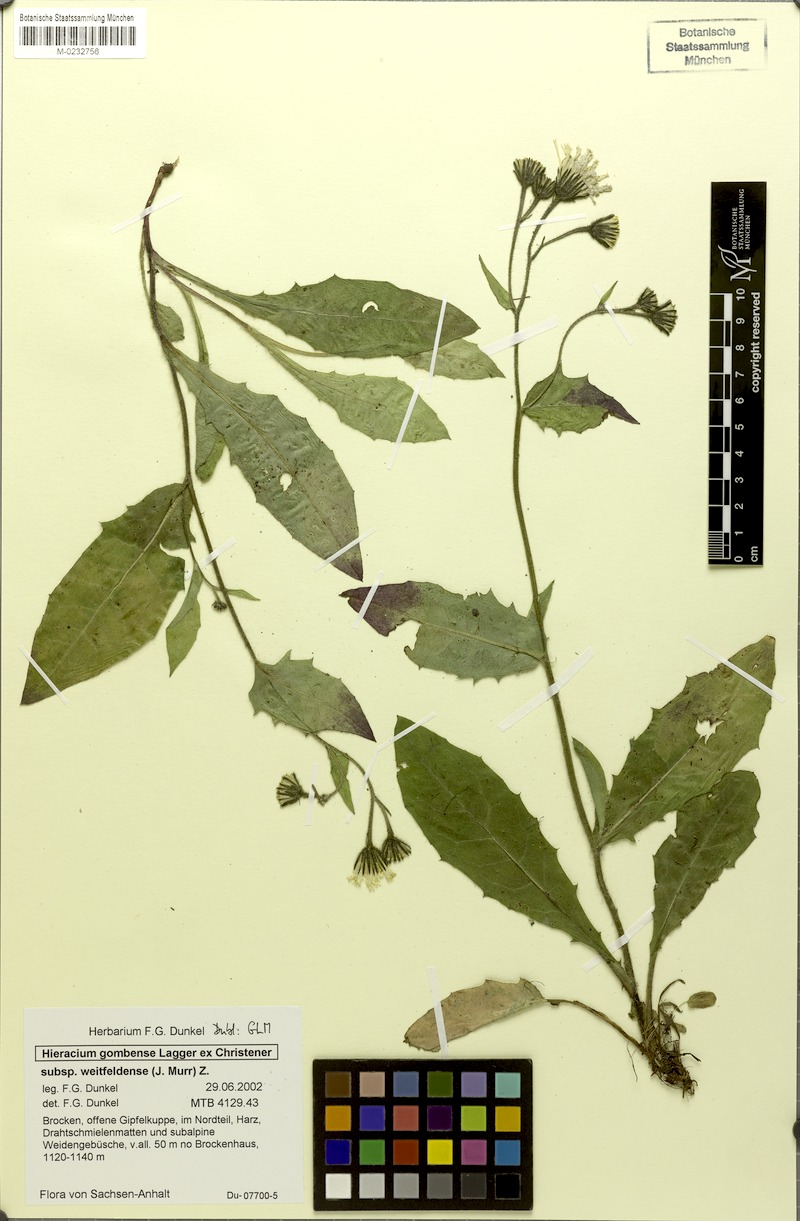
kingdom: Plantae
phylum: Tracheophyta
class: Magnoliopsida
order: Asterales
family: Asteraceae
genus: Hieracium
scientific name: Hieracium gombense
